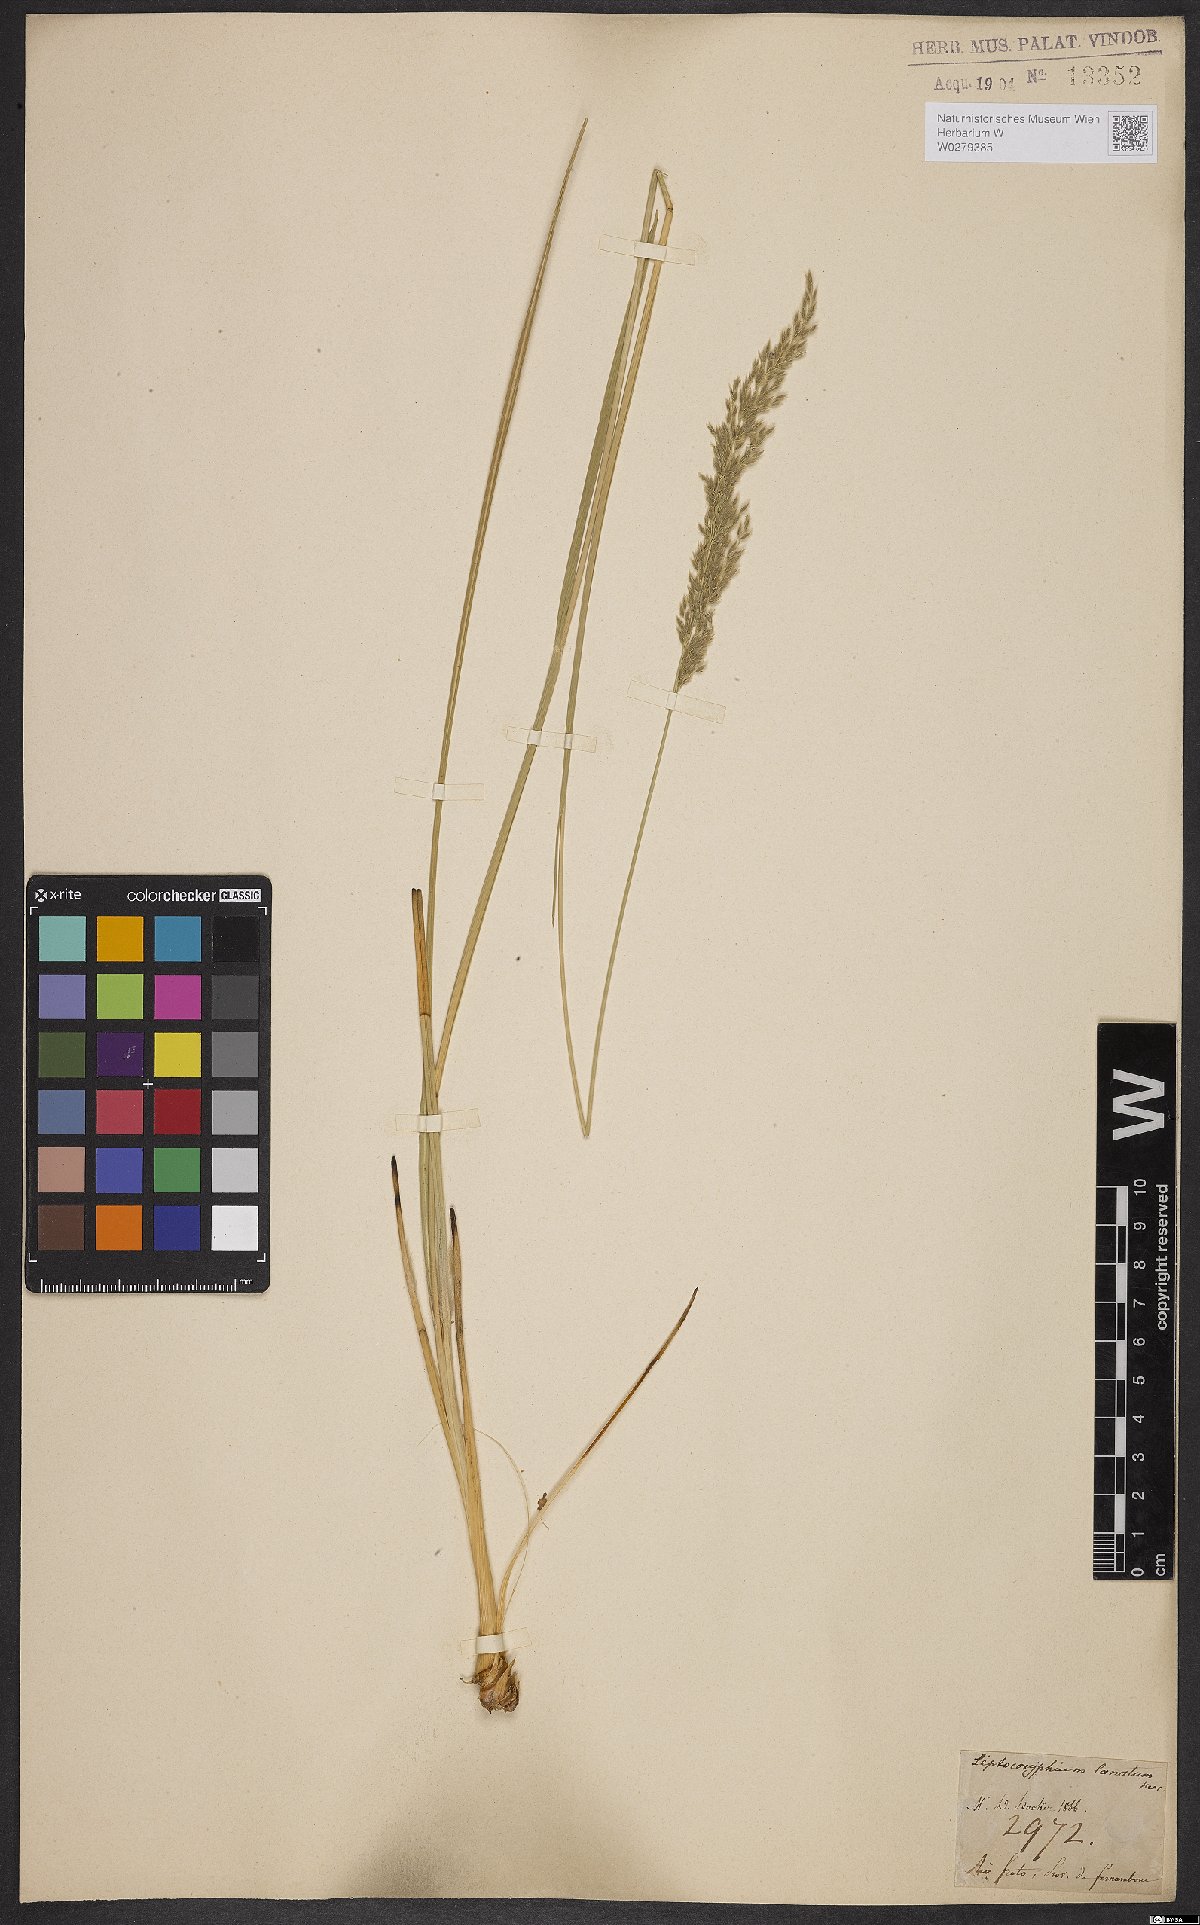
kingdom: Plantae
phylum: Tracheophyta
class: Liliopsida
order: Poales
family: Poaceae
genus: Anthaenantia
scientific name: Anthaenantia lanata
